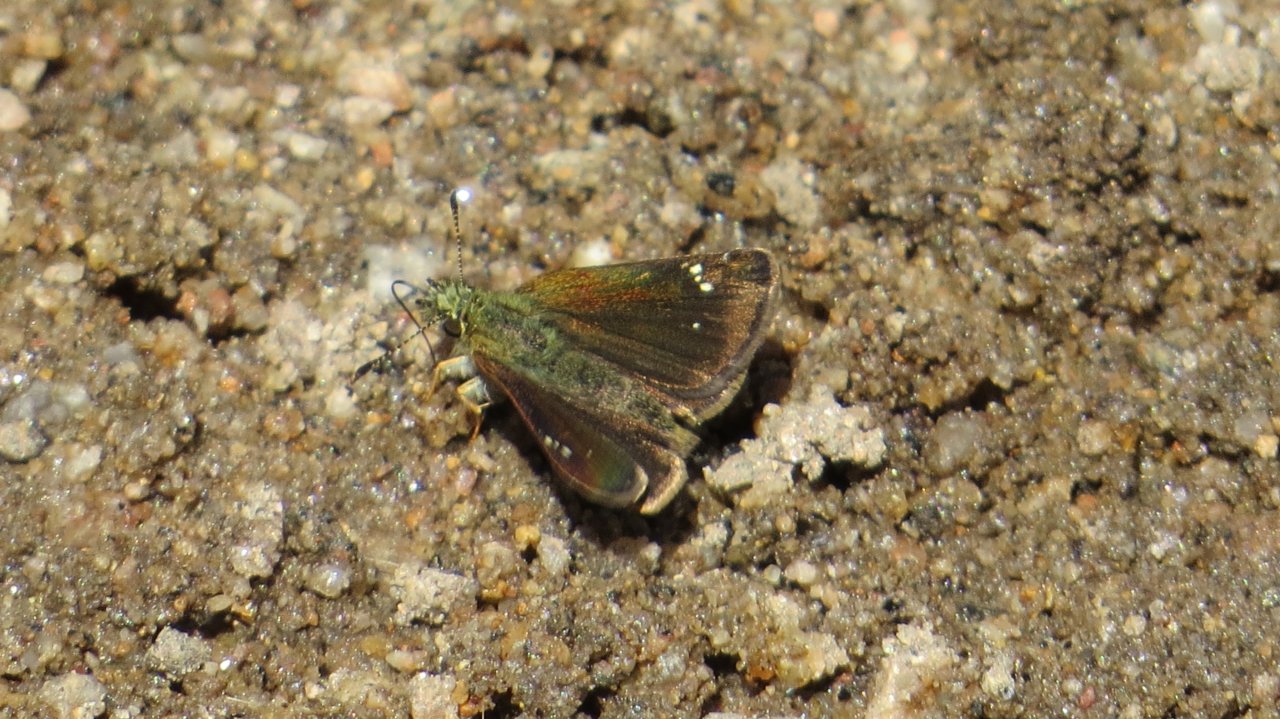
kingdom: Animalia
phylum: Arthropoda
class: Insecta
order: Lepidoptera
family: Hesperiidae
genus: Mastor
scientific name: Mastor vialis
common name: Common Roadside-Skipper
